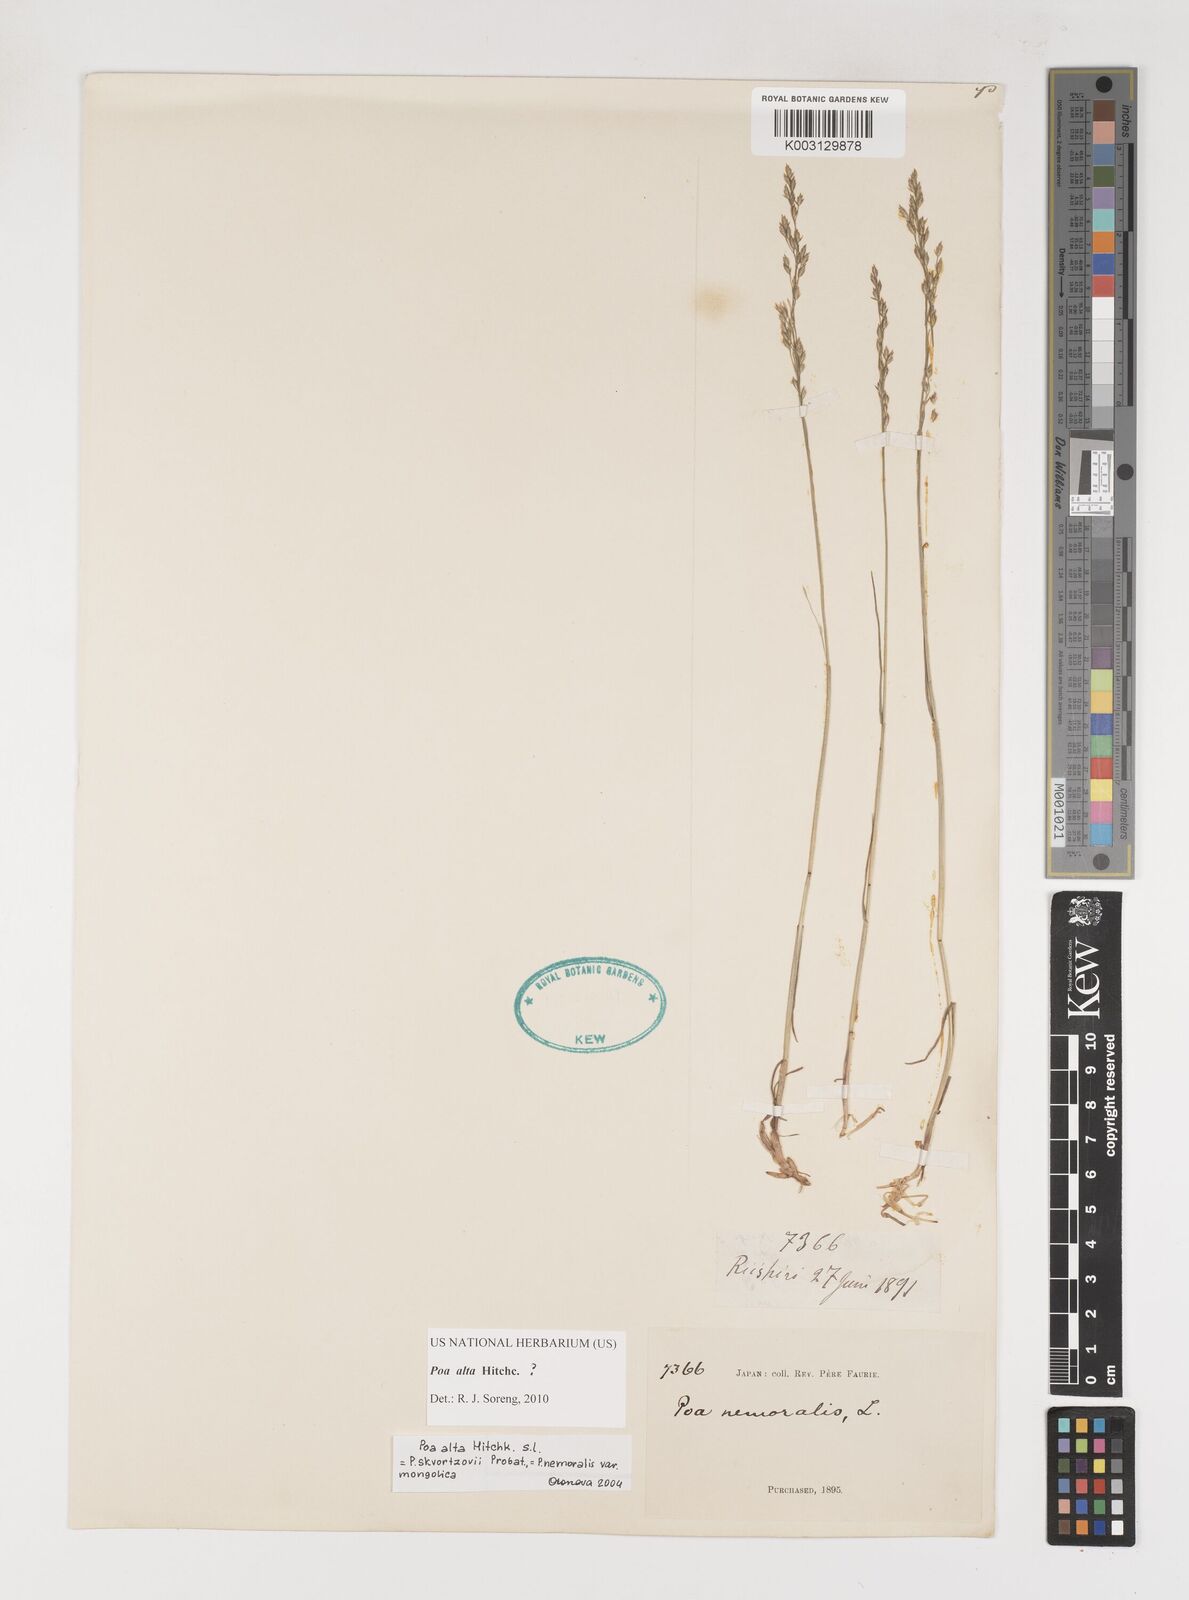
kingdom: Plantae
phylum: Tracheophyta
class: Liliopsida
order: Poales
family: Poaceae
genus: Poa
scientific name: Poa alta
